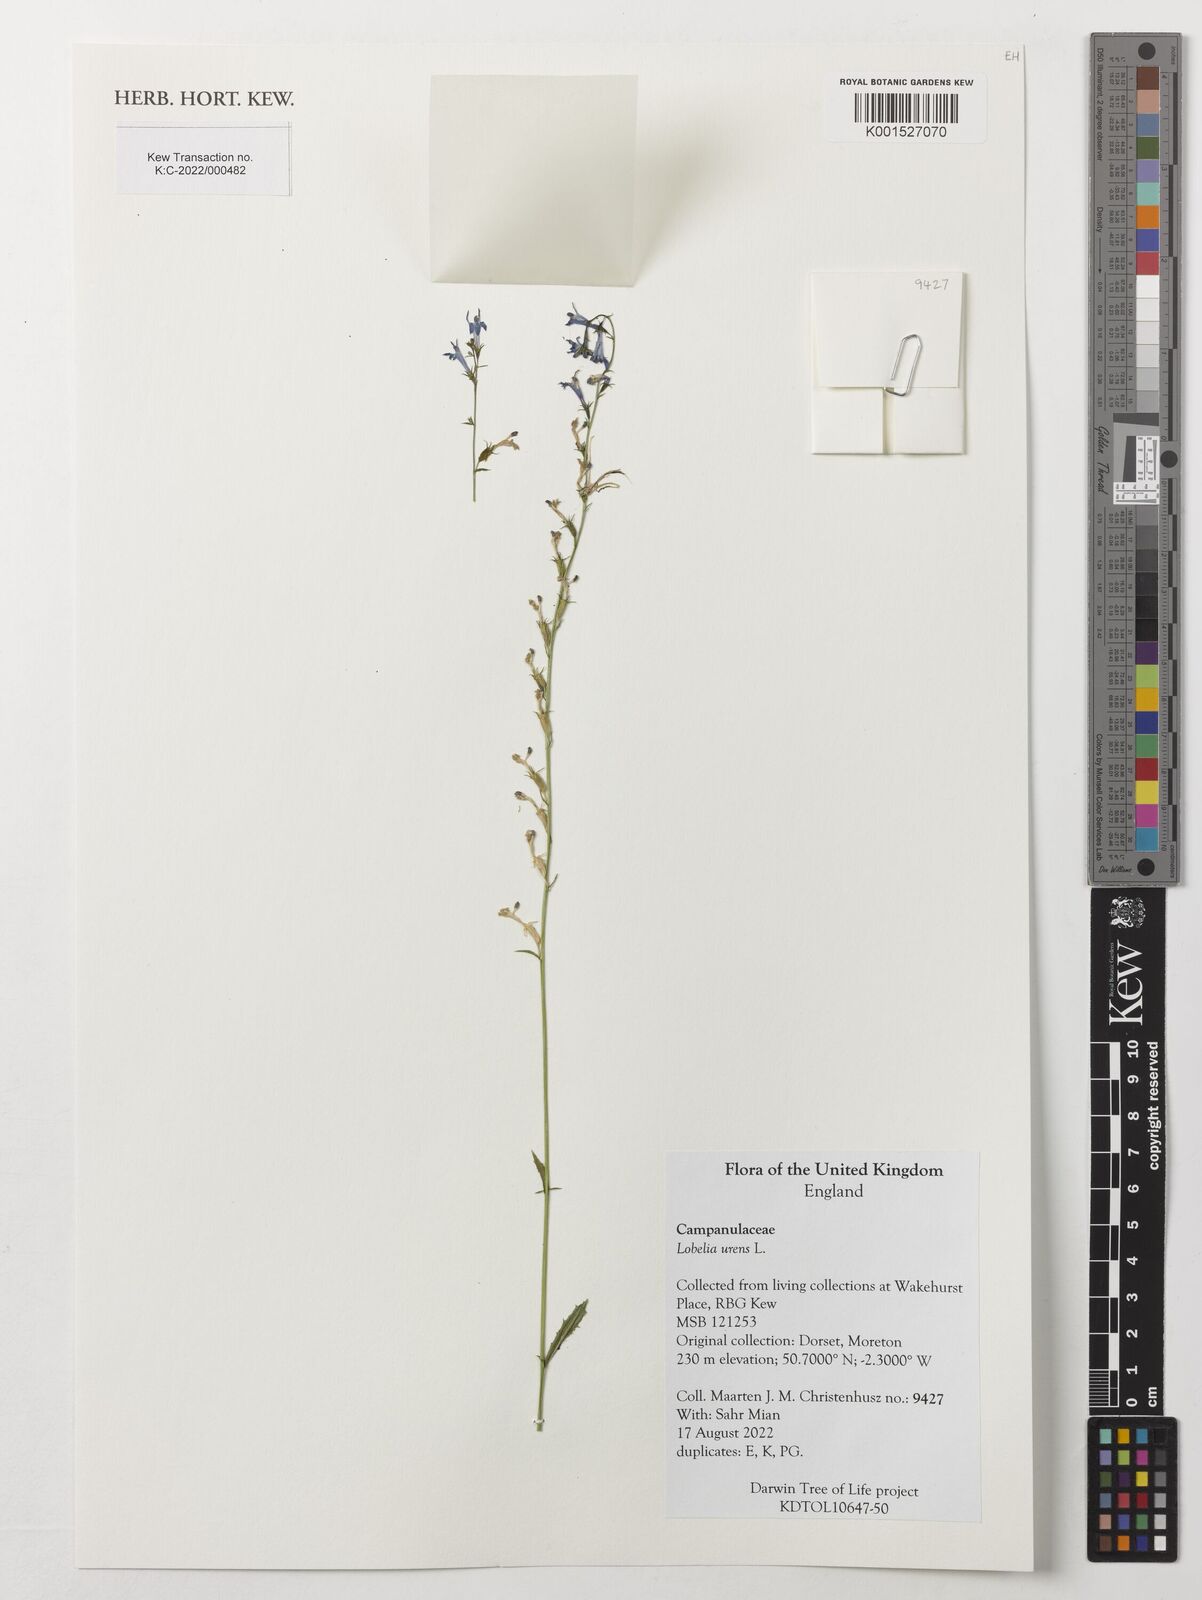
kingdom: Plantae
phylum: Tracheophyta
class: Magnoliopsida
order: Asterales
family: Campanulaceae
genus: Lobelia
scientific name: Lobelia urens
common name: Heath lobelia
